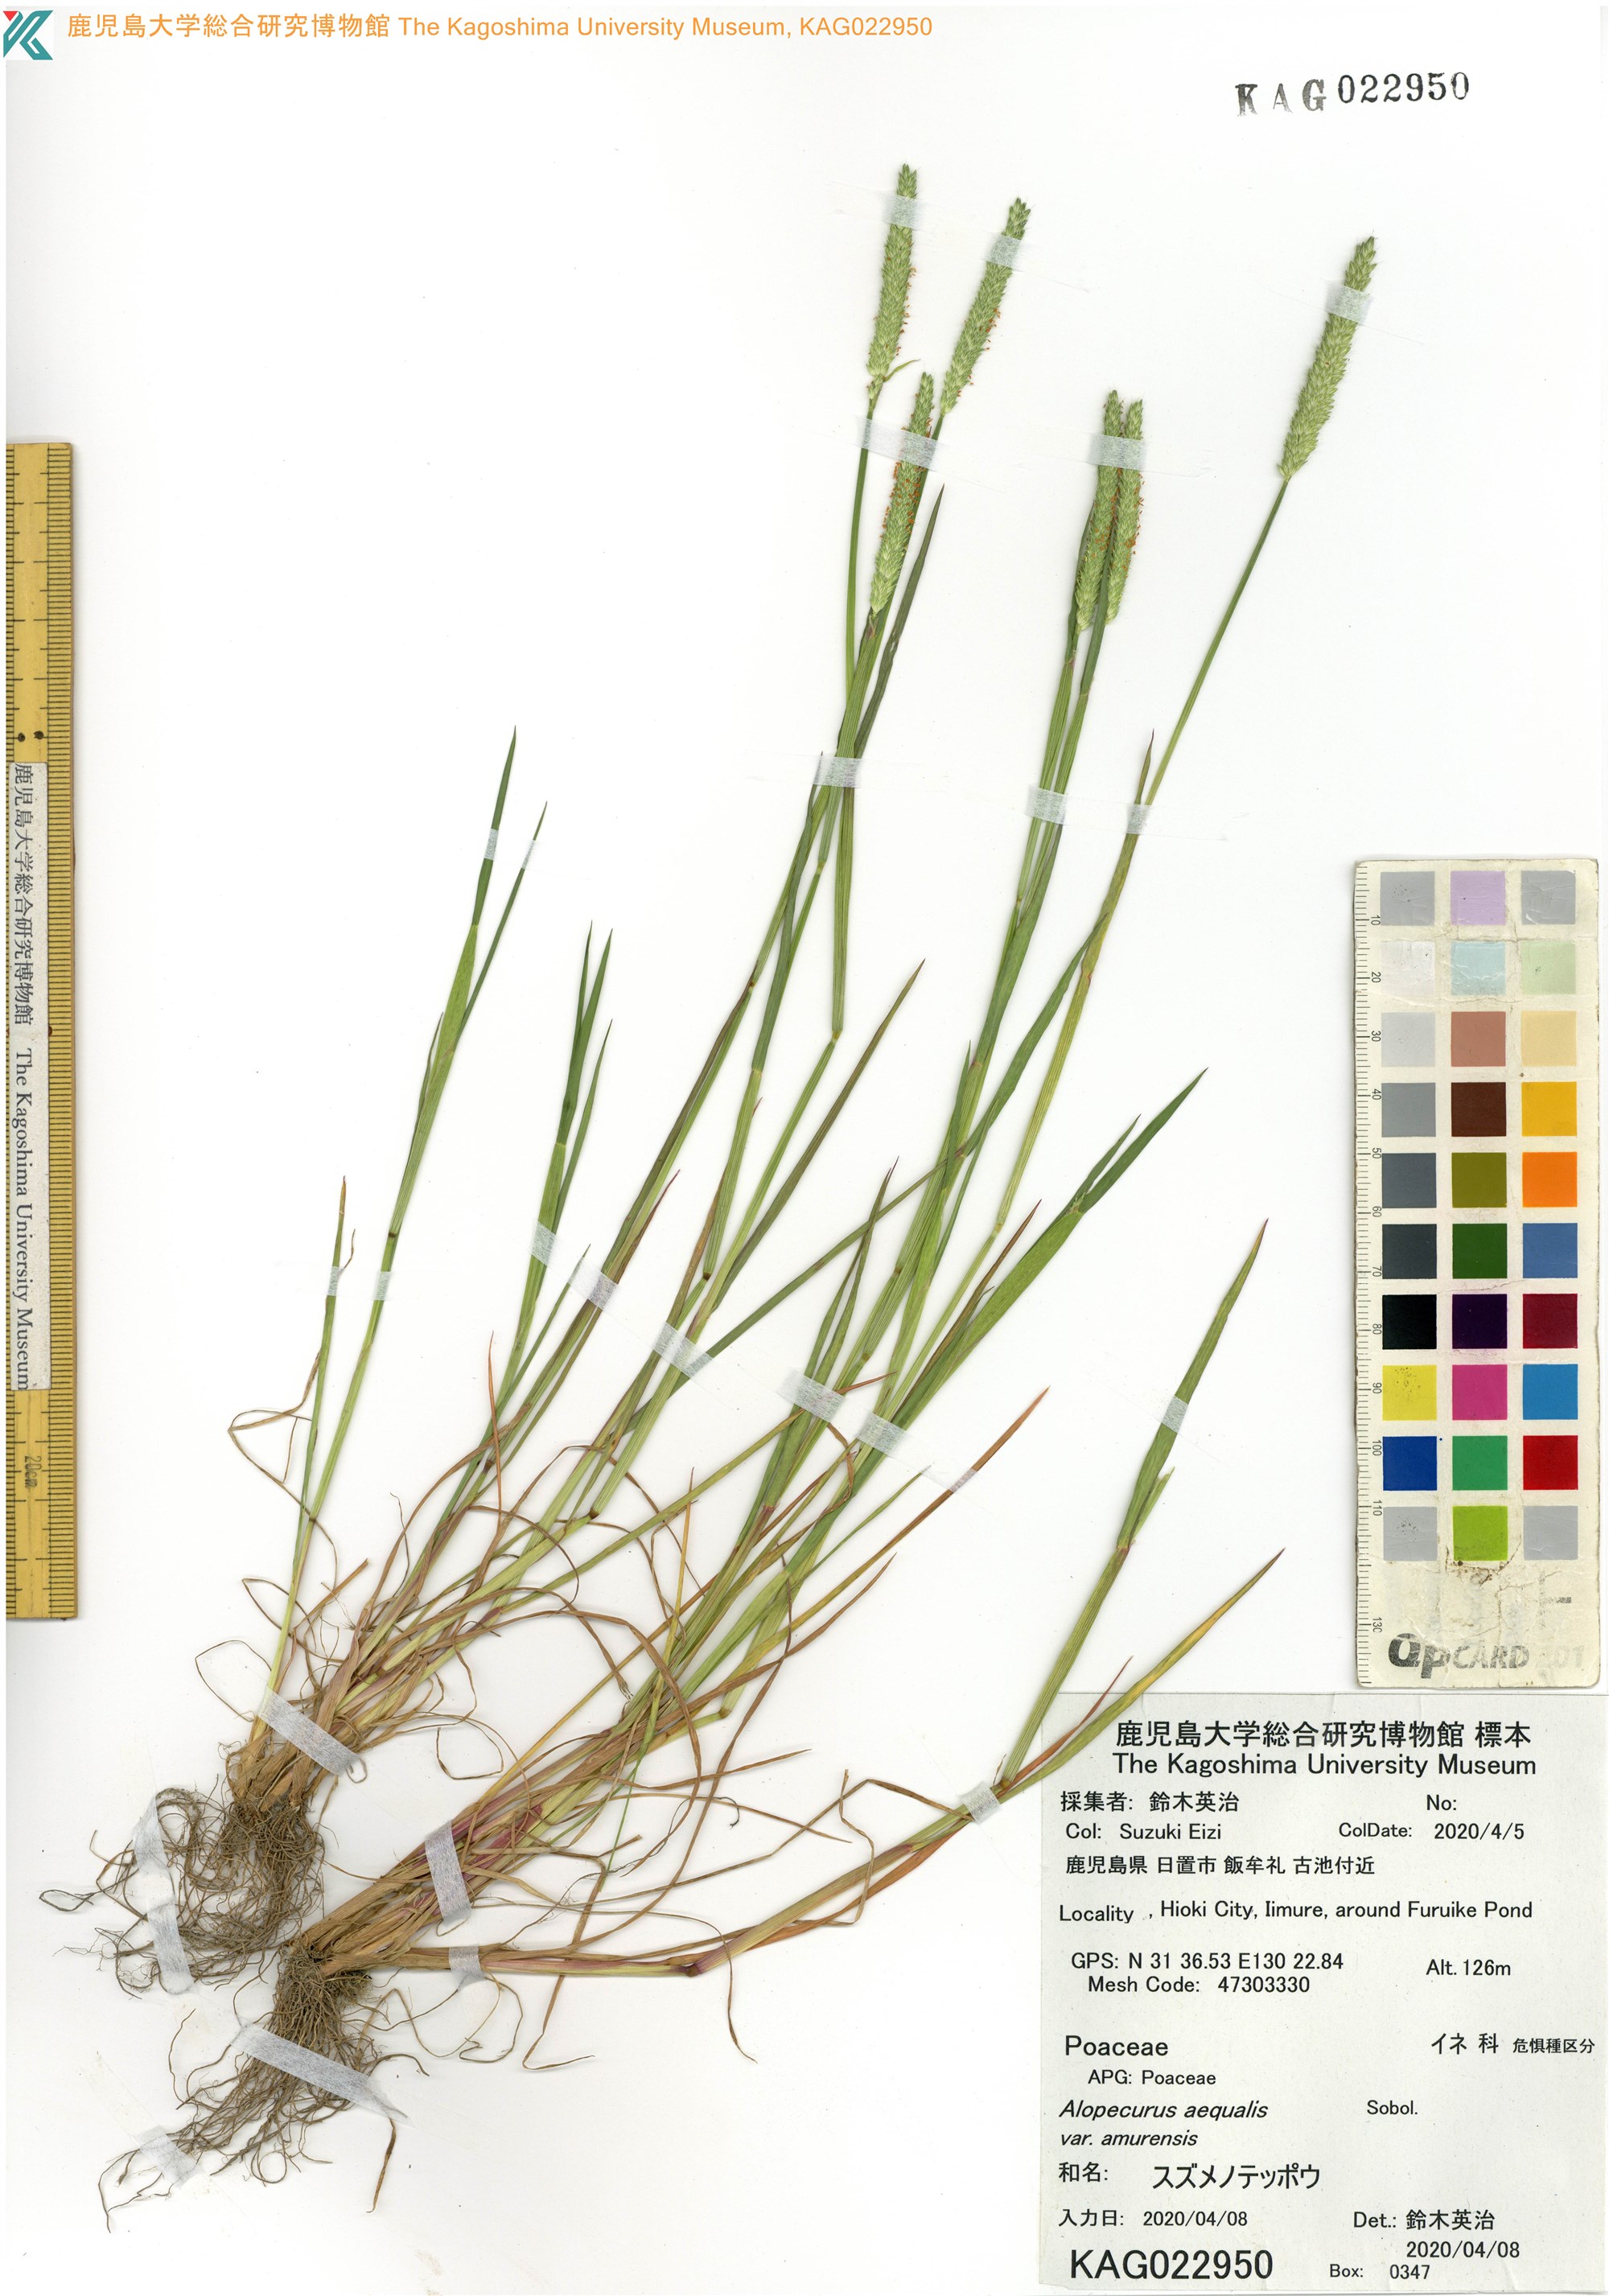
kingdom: Plantae
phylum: Tracheophyta
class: Liliopsida
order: Poales
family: Poaceae
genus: Alopecurus
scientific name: Alopecurus aequalis
